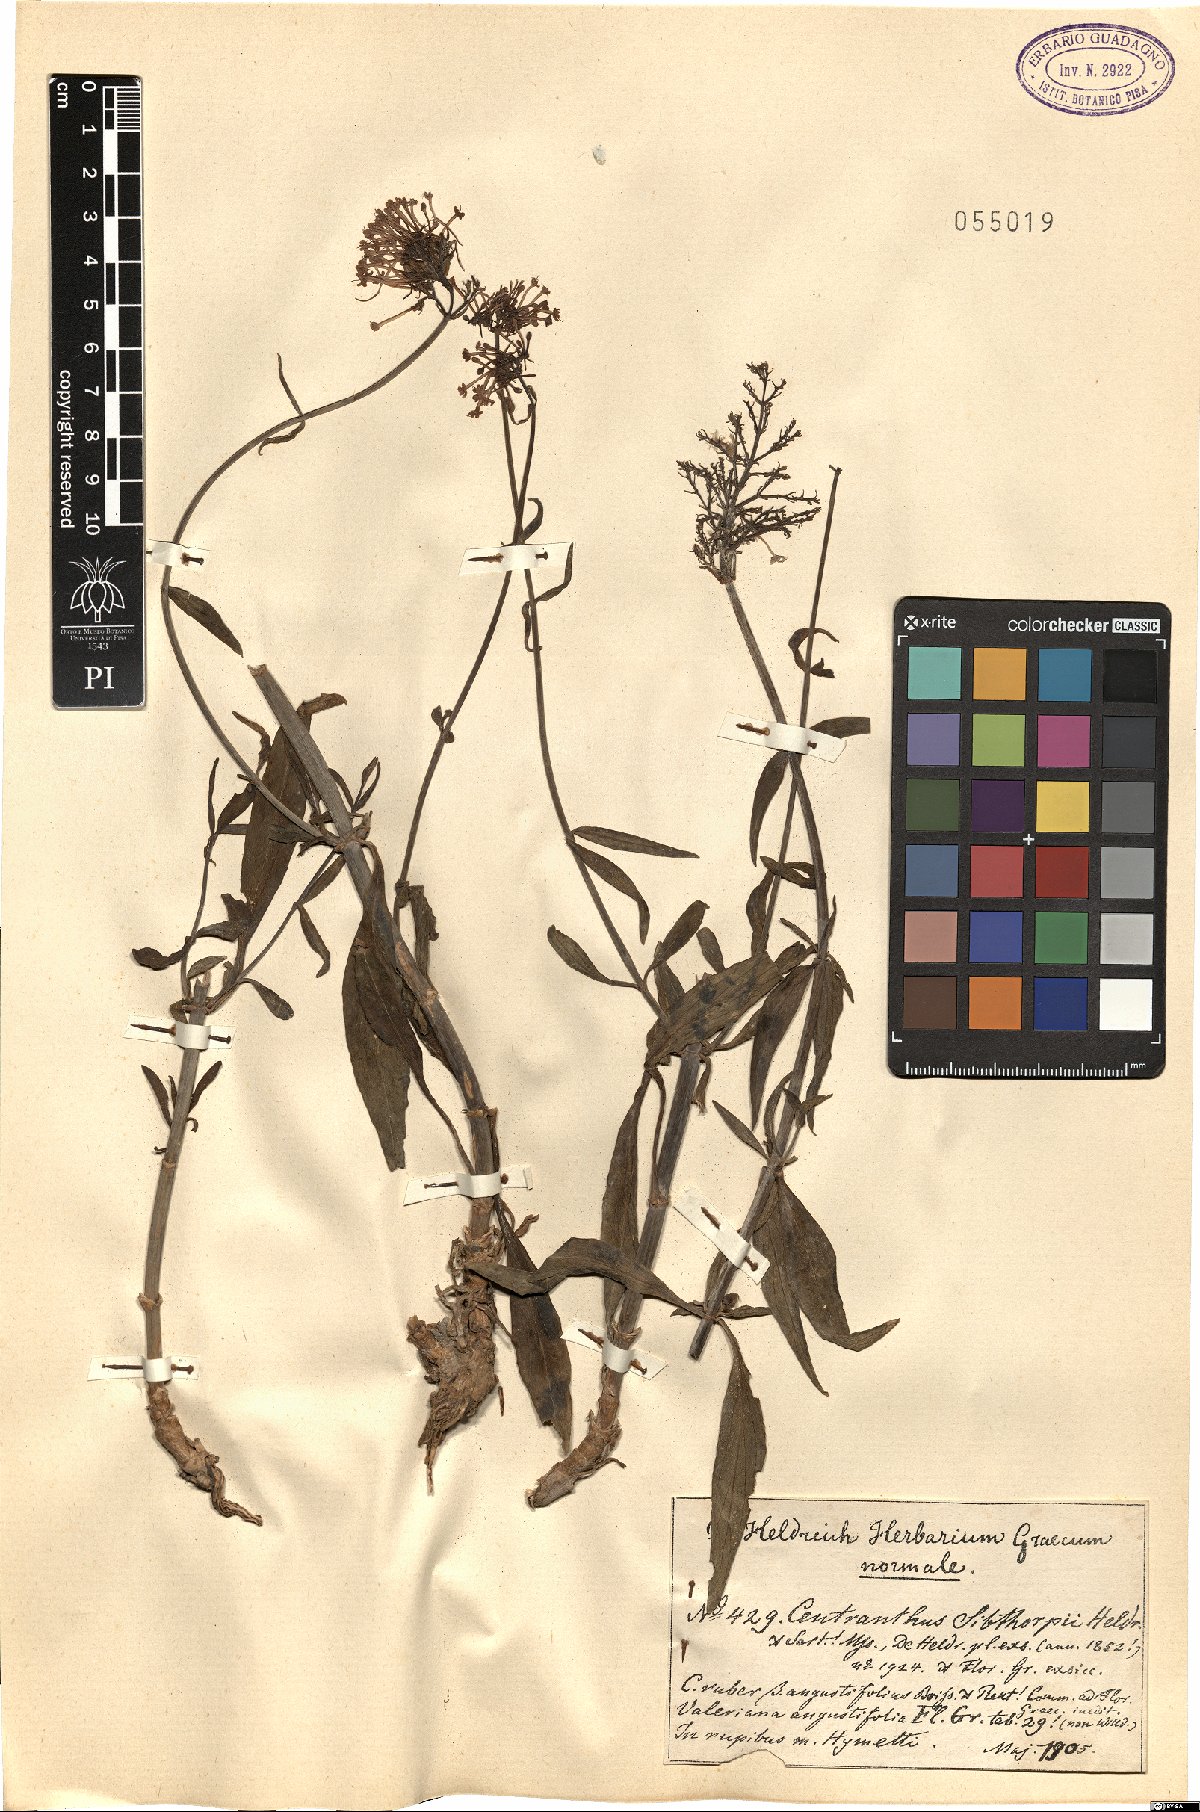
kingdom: Plantae
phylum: Tracheophyta
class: Magnoliopsida
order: Dipsacales
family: Caprifoliaceae
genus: Centranthus
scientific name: Centranthus ruber
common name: Red valerian
